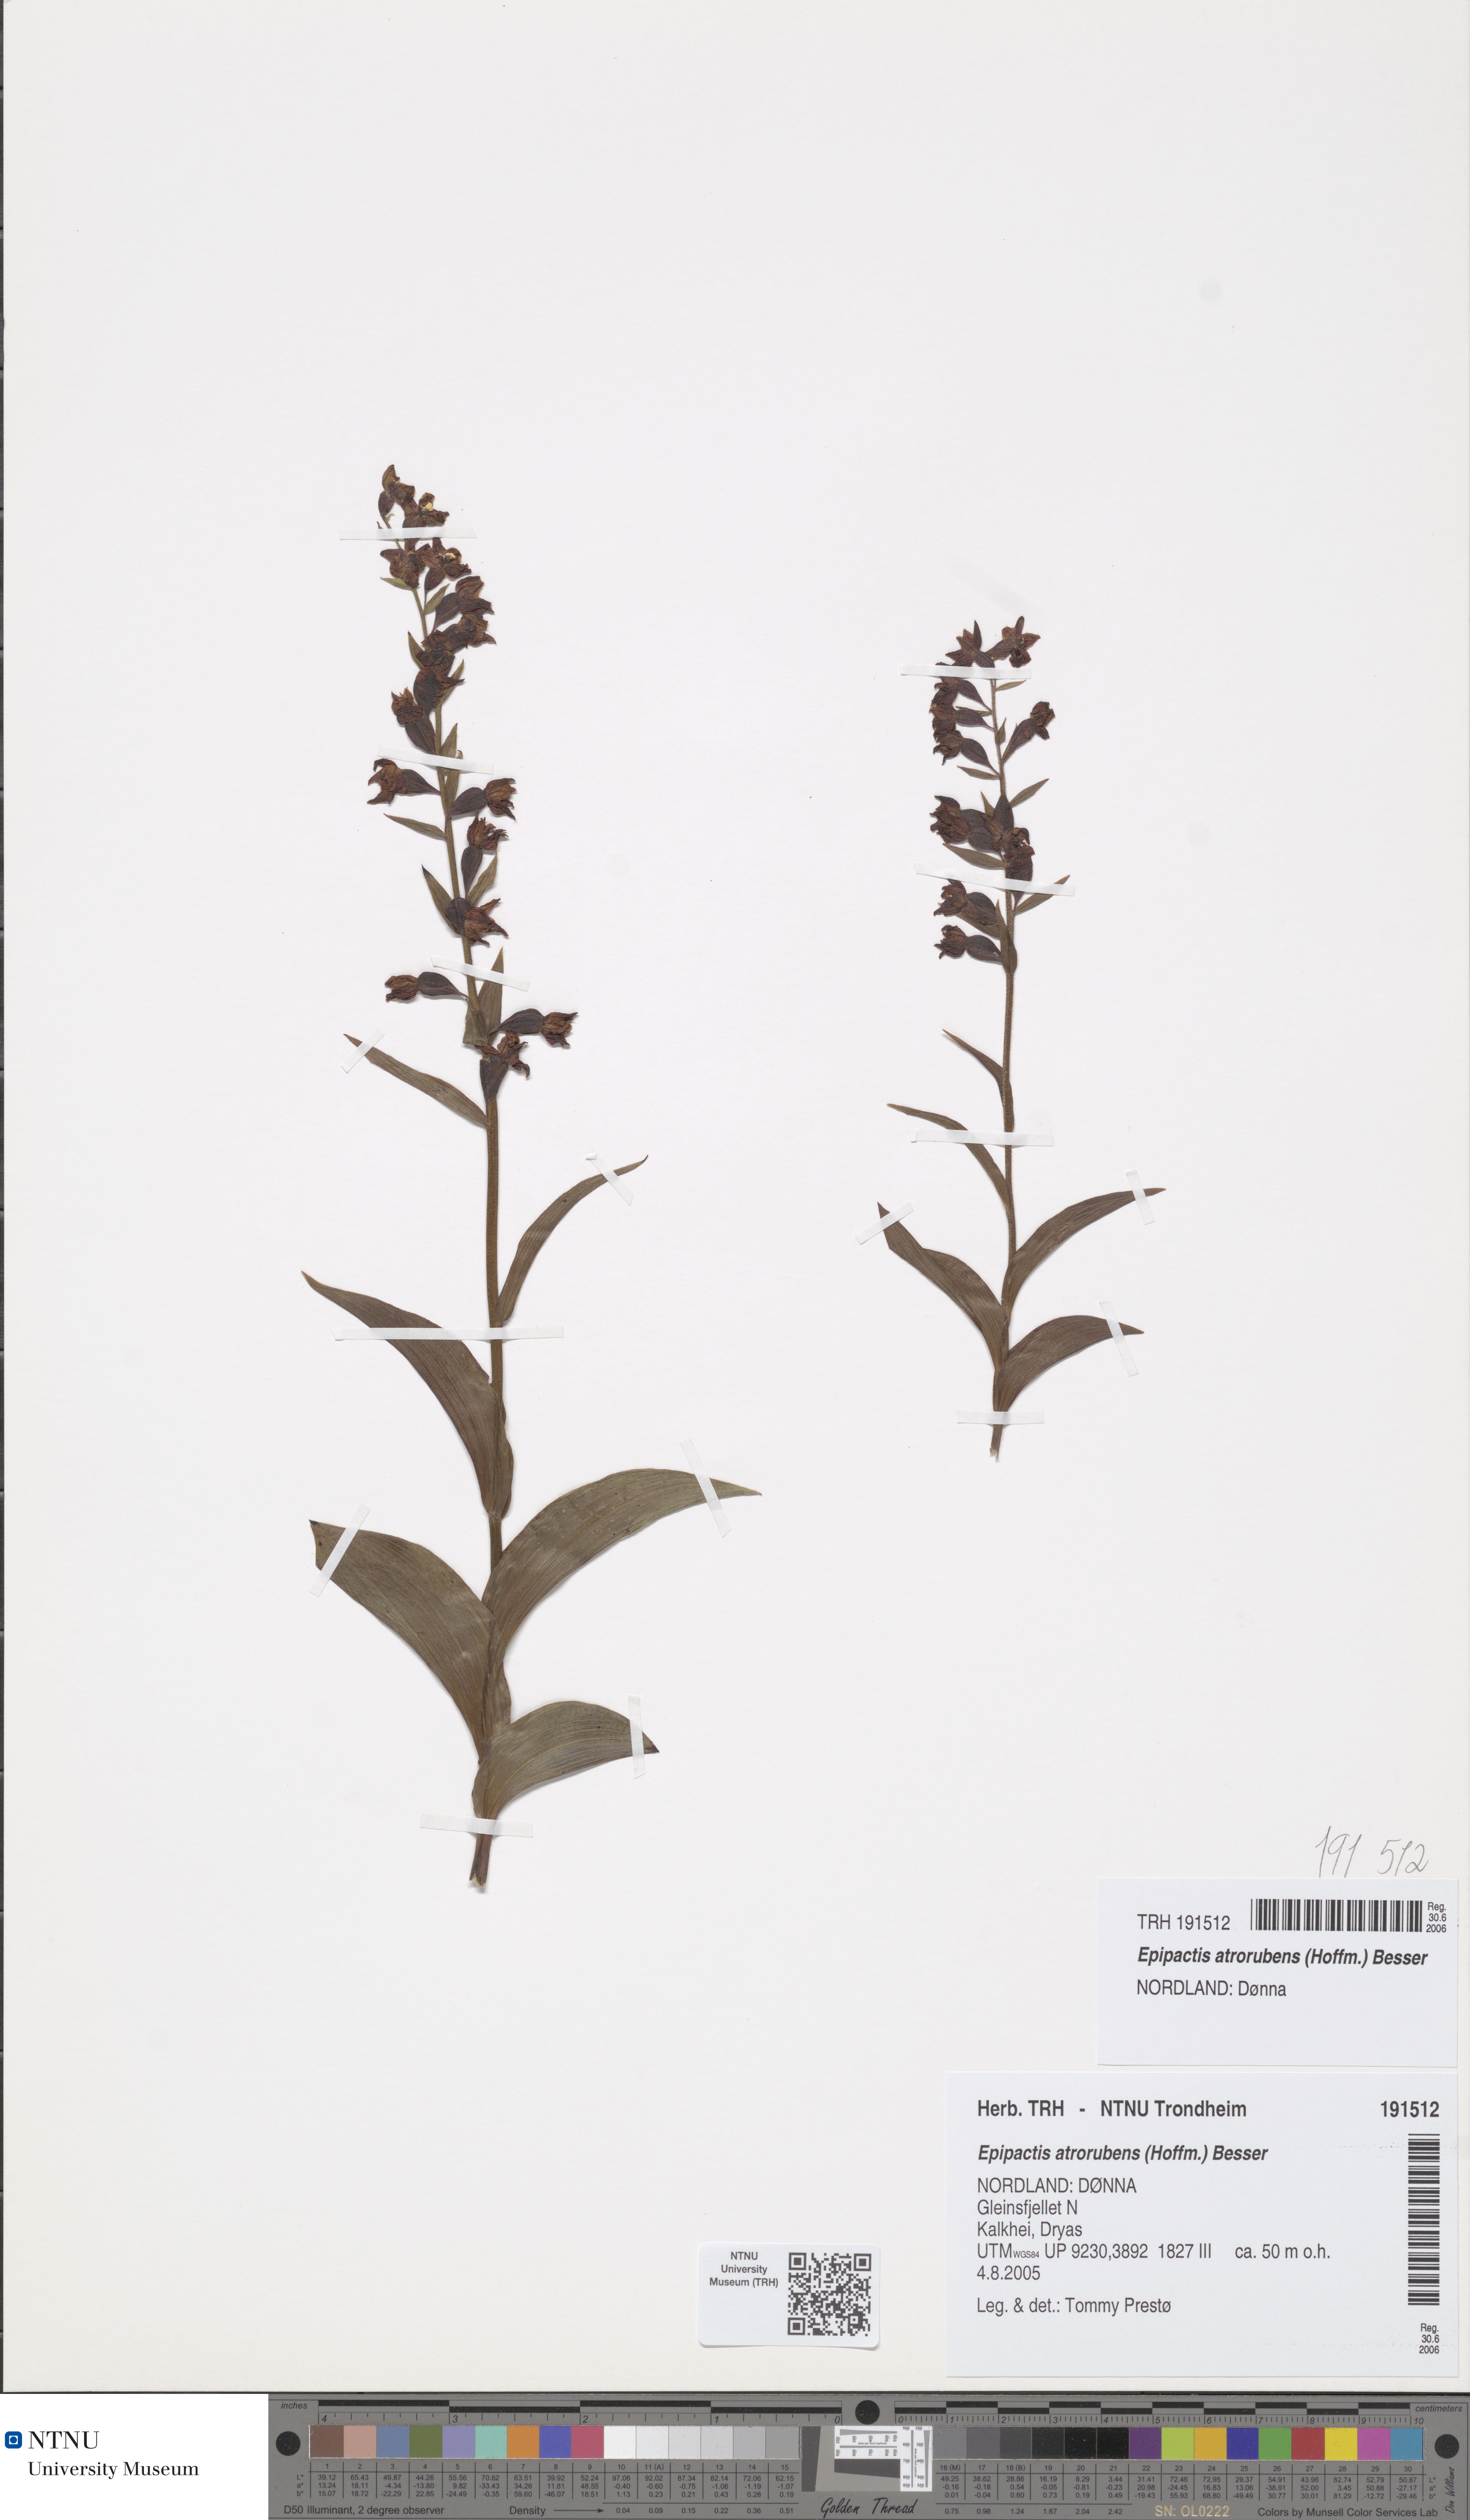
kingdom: Plantae
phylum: Tracheophyta
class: Liliopsida
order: Asparagales
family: Orchidaceae
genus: Epipactis
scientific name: Epipactis atrorubens
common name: Dark-red helleborine
